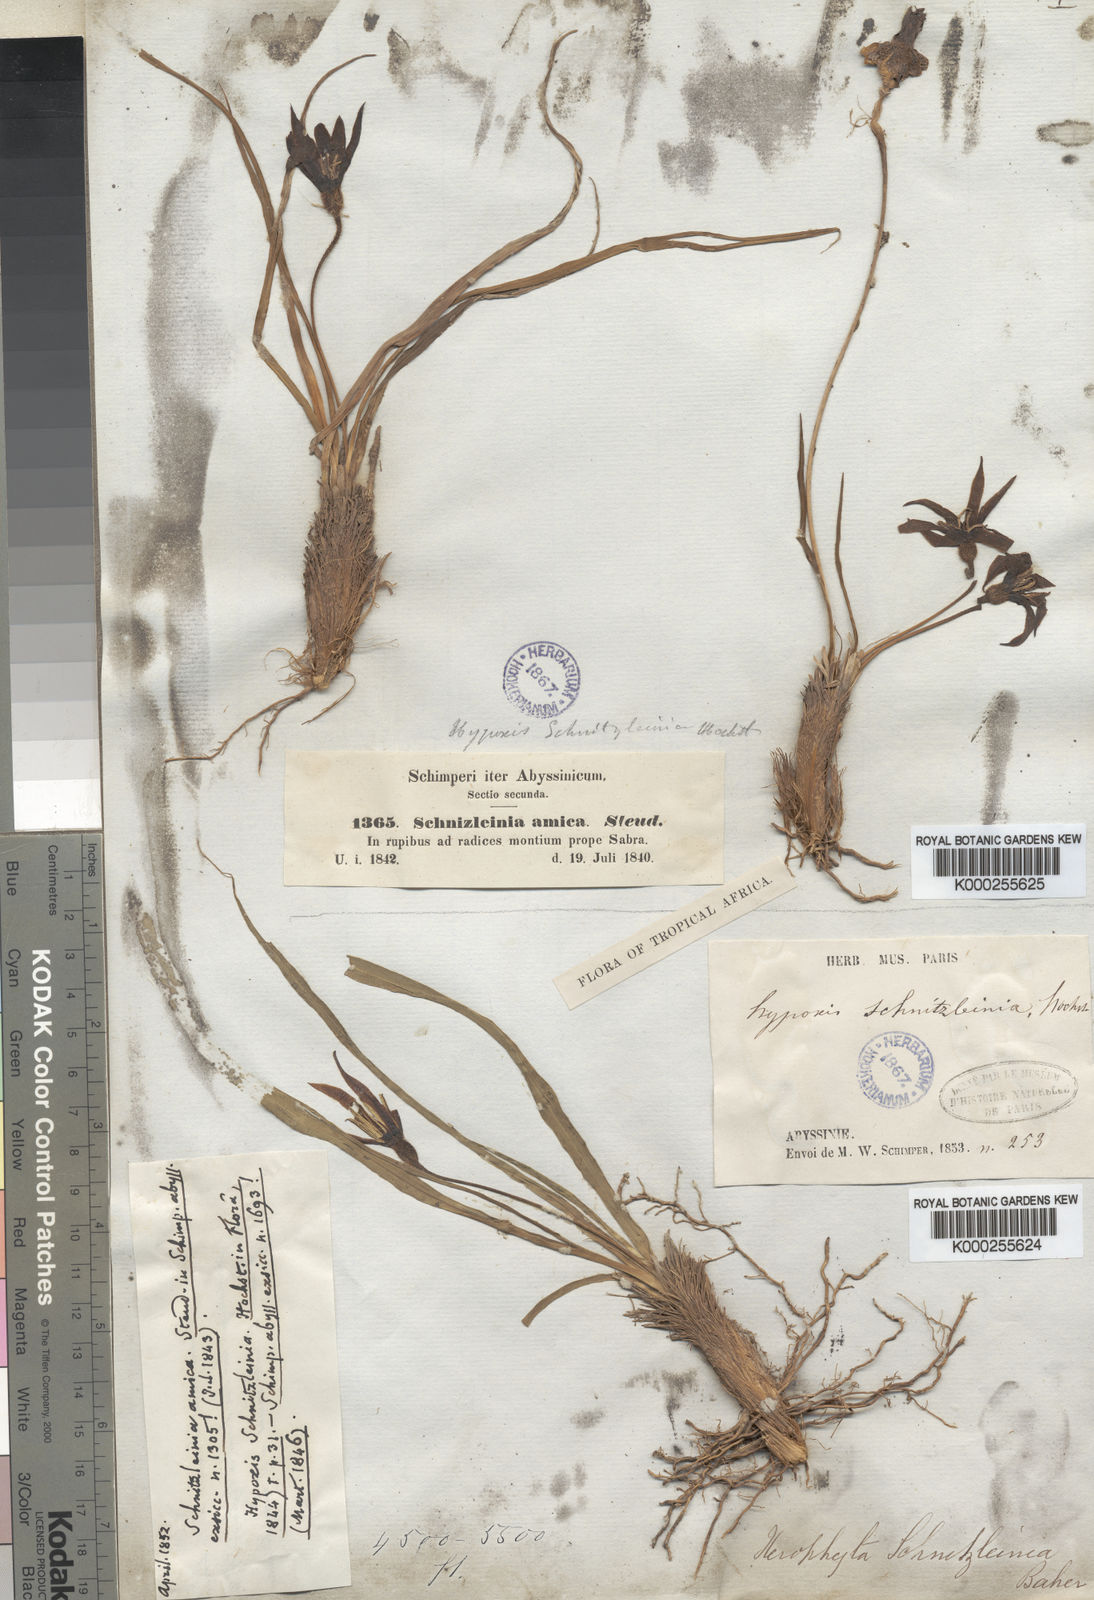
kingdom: Plantae
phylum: Tracheophyta
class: Liliopsida
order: Pandanales
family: Velloziaceae
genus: Xerophyta
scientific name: Xerophyta schnizleinia
